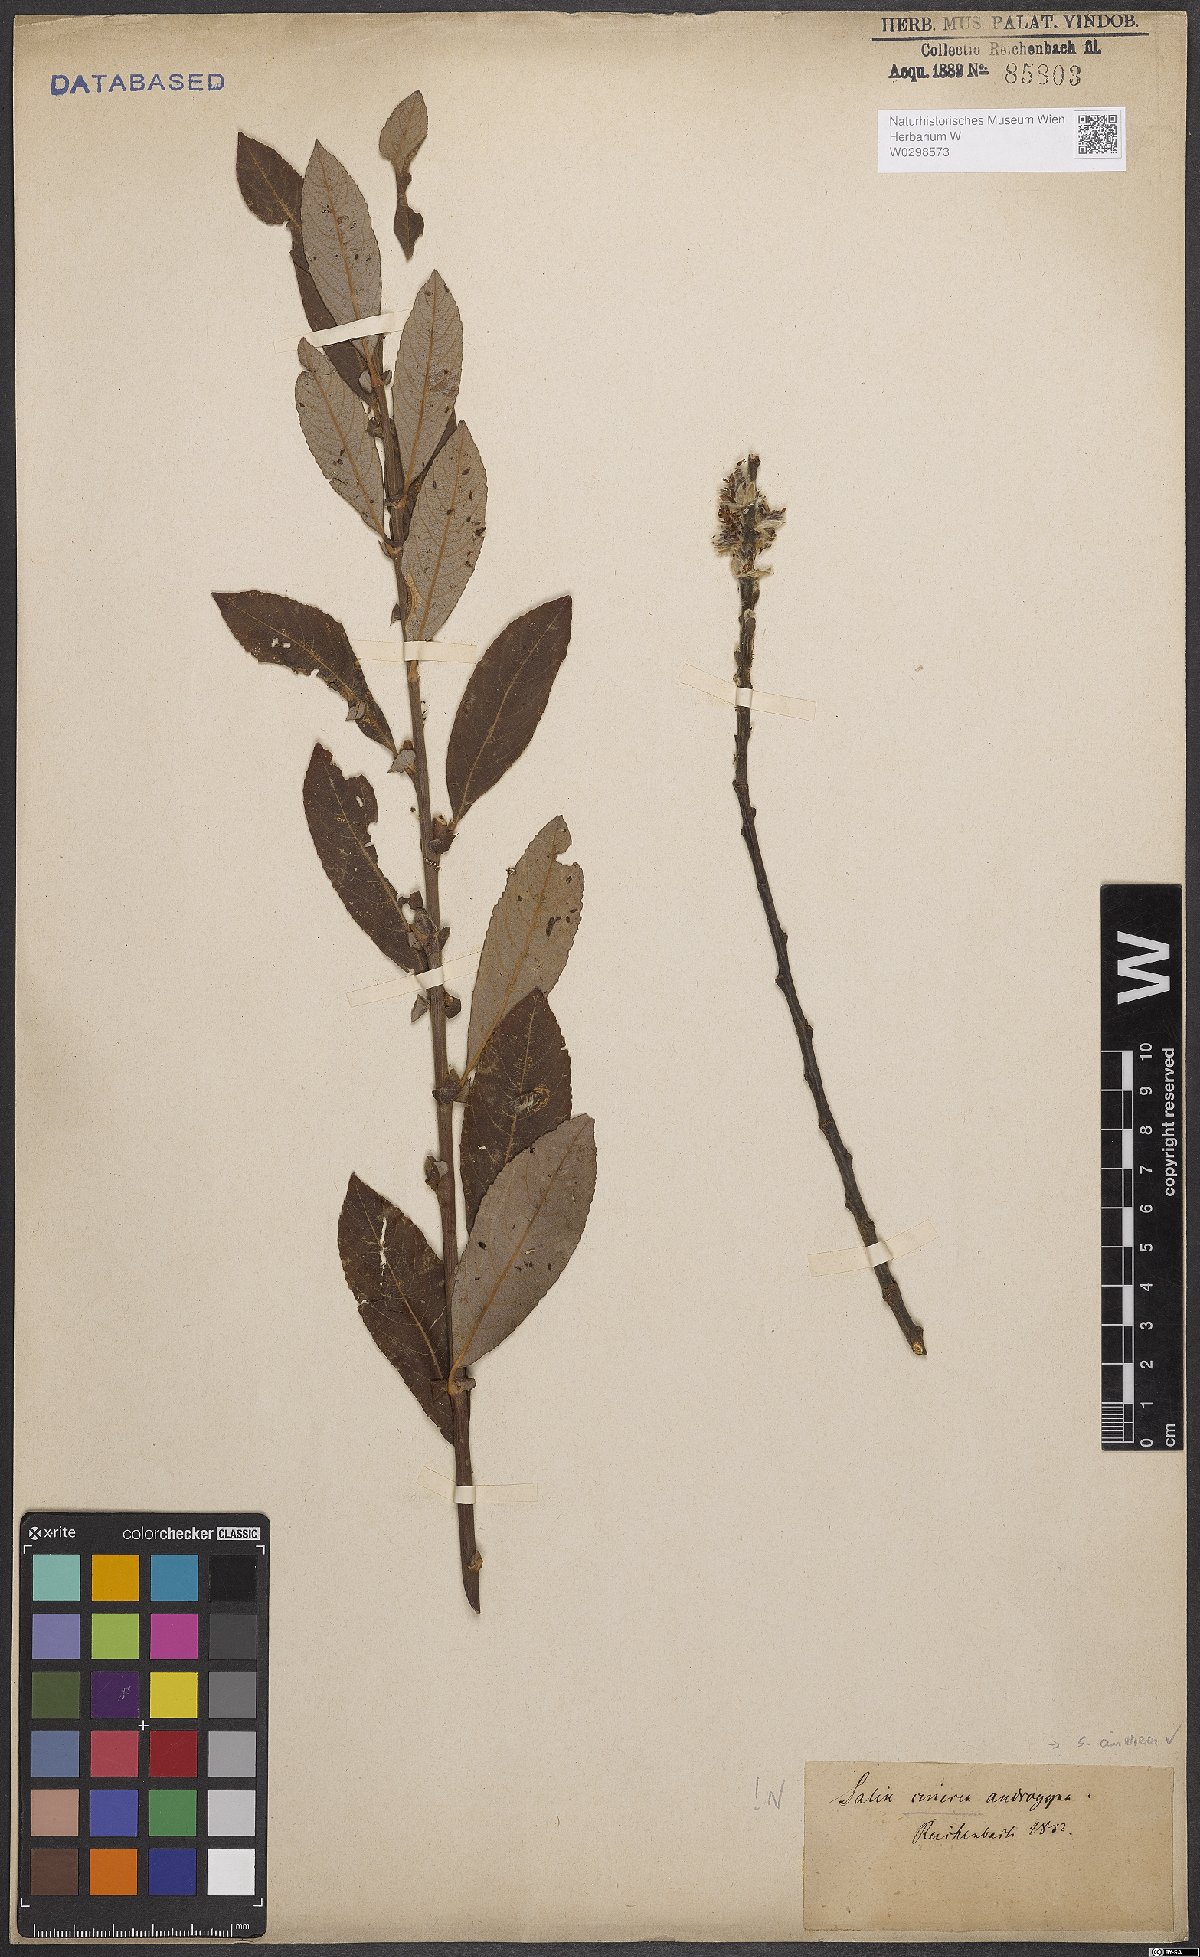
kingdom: Plantae
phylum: Tracheophyta
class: Magnoliopsida
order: Malpighiales
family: Salicaceae
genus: Salix
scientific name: Salix cinerea
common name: Common sallow
